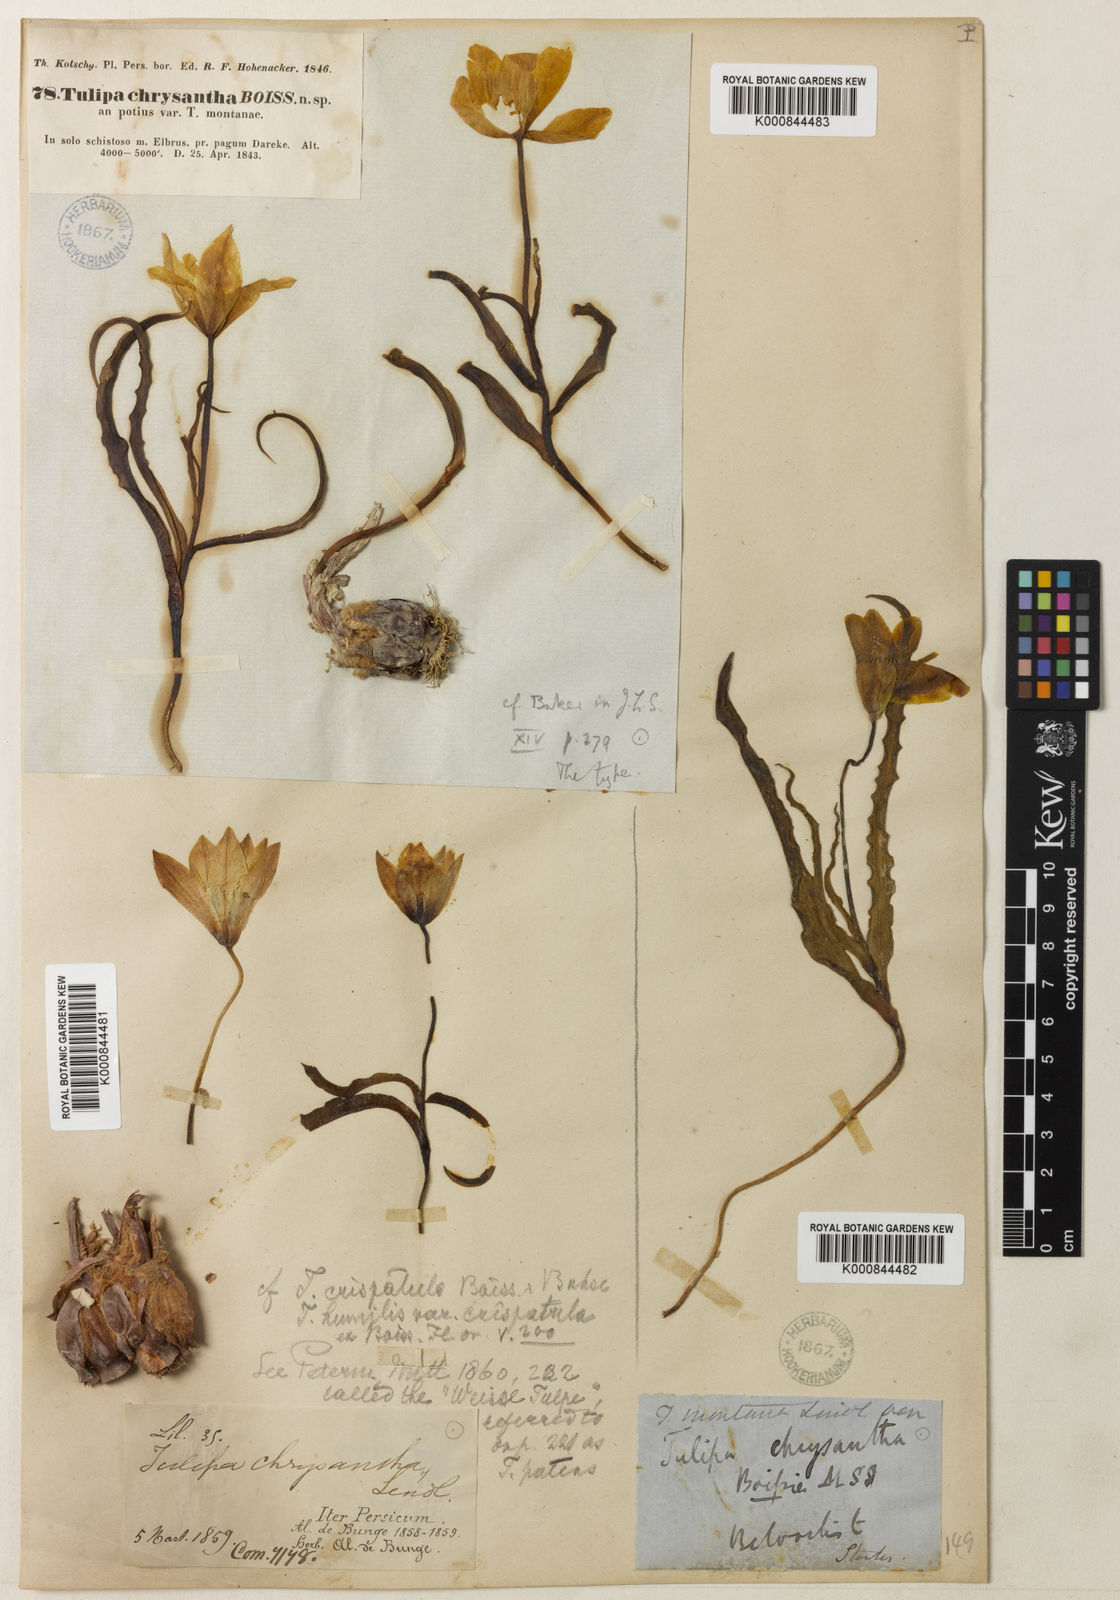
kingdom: Plantae
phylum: Tracheophyta
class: Liliopsida
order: Liliales
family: Liliaceae
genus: Tulipa
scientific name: Tulipa montana
